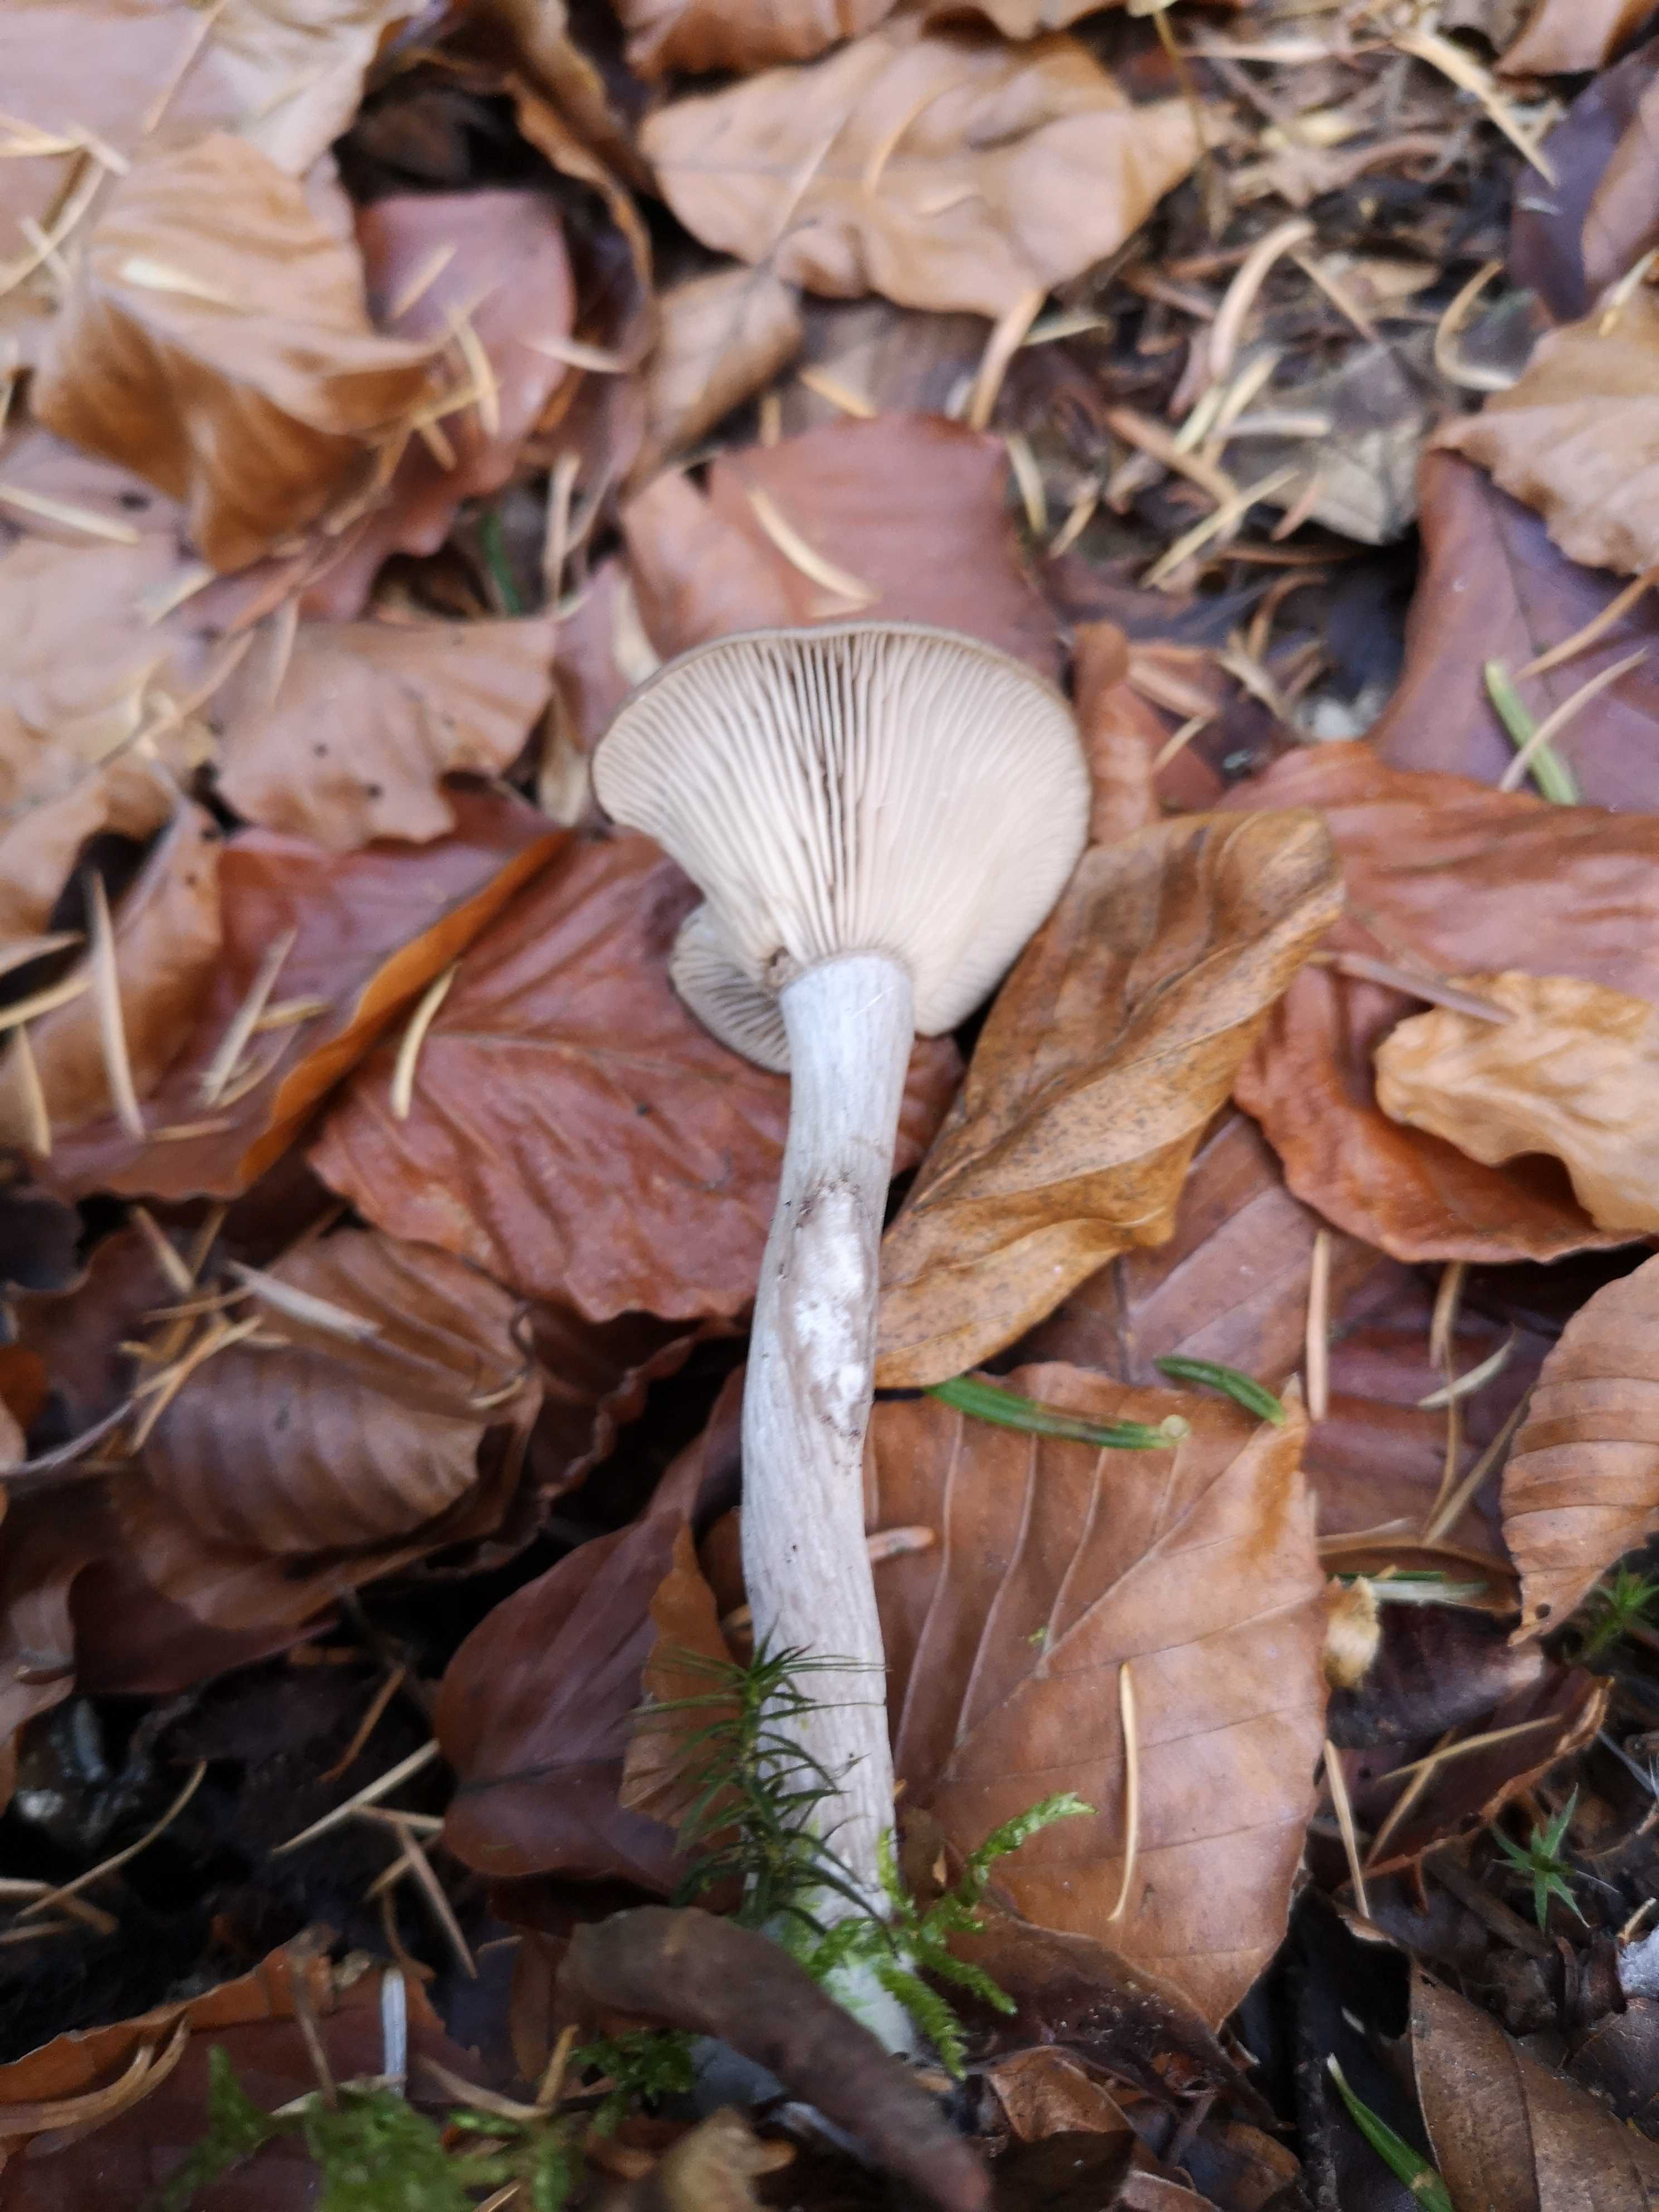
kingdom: Fungi
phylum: Basidiomycota
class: Agaricomycetes
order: Agaricales
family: Pseudoclitocybaceae
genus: Pseudoclitocybe
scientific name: Pseudoclitocybe cyathiformis
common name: almindelig bægertragthat
